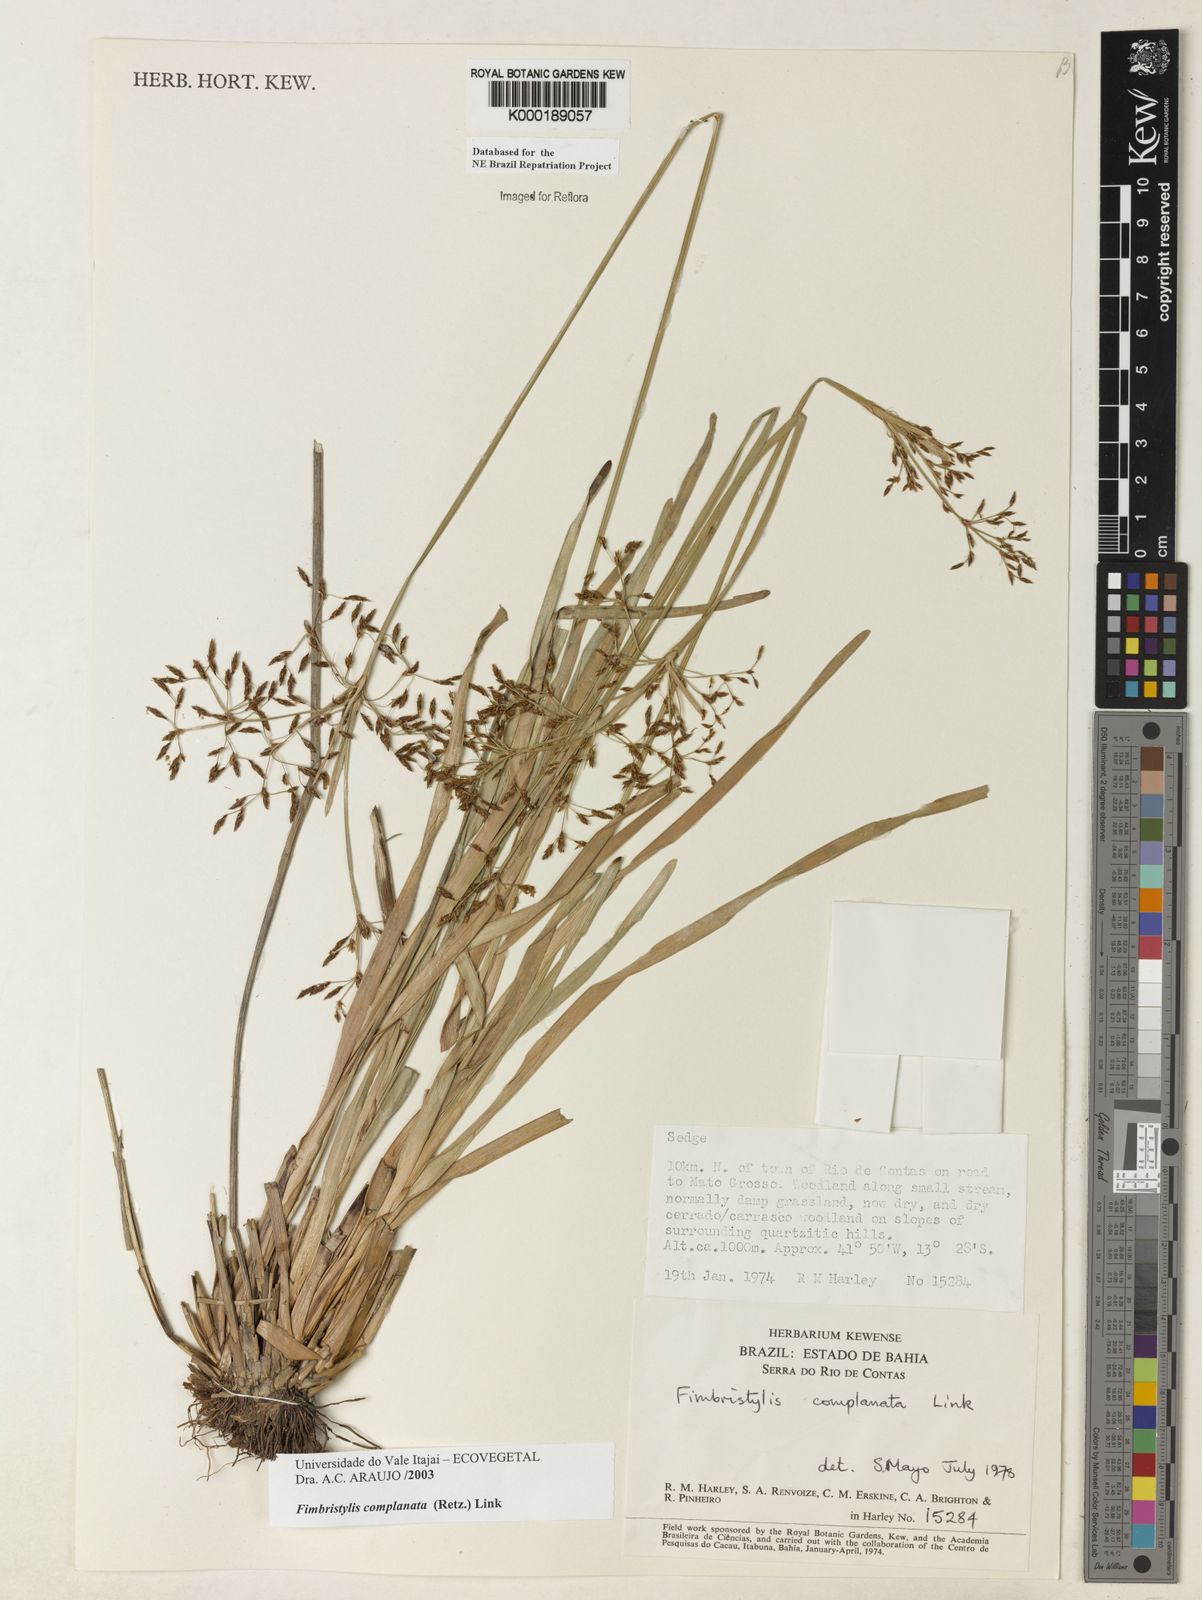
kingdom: Plantae
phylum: Tracheophyta
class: Liliopsida
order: Poales
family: Cyperaceae
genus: Fimbristylis
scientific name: Fimbristylis complanata
